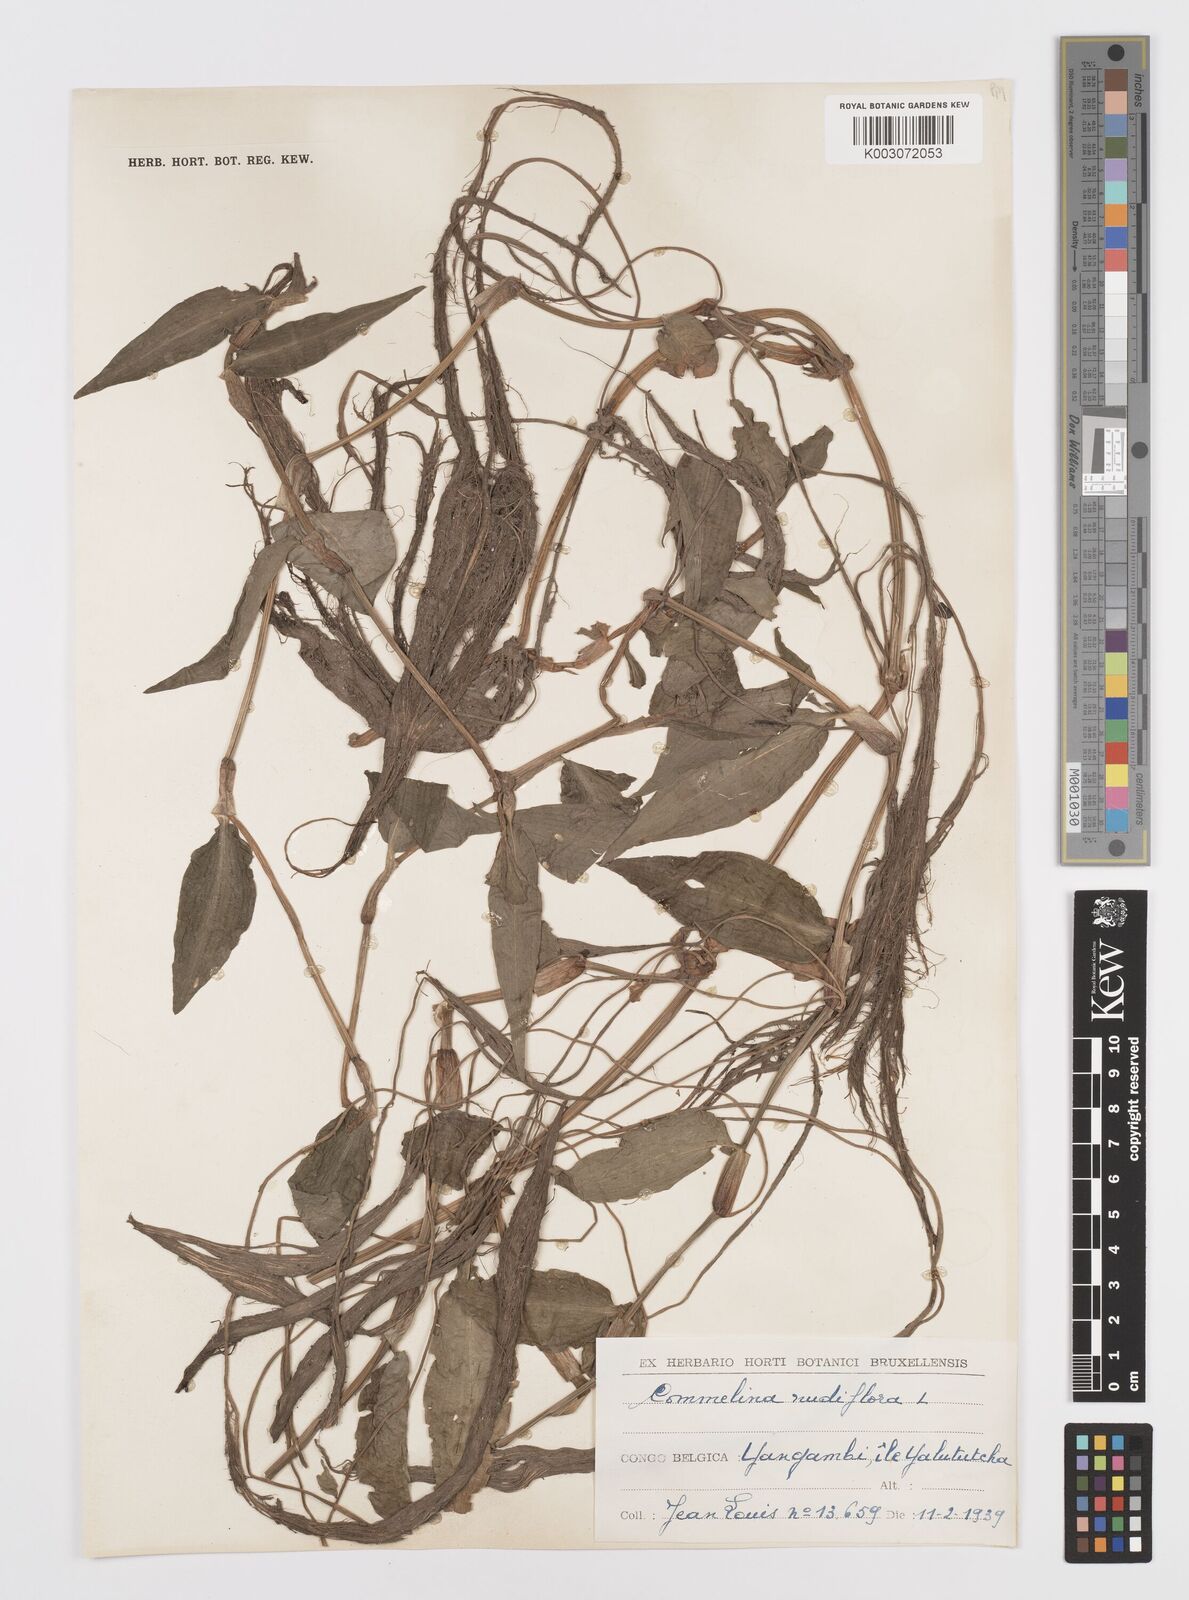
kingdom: Plantae
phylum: Tracheophyta
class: Liliopsida
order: Commelinales
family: Commelinaceae
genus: Commelina
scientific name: Commelina diffusa
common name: Climbing dayflower
